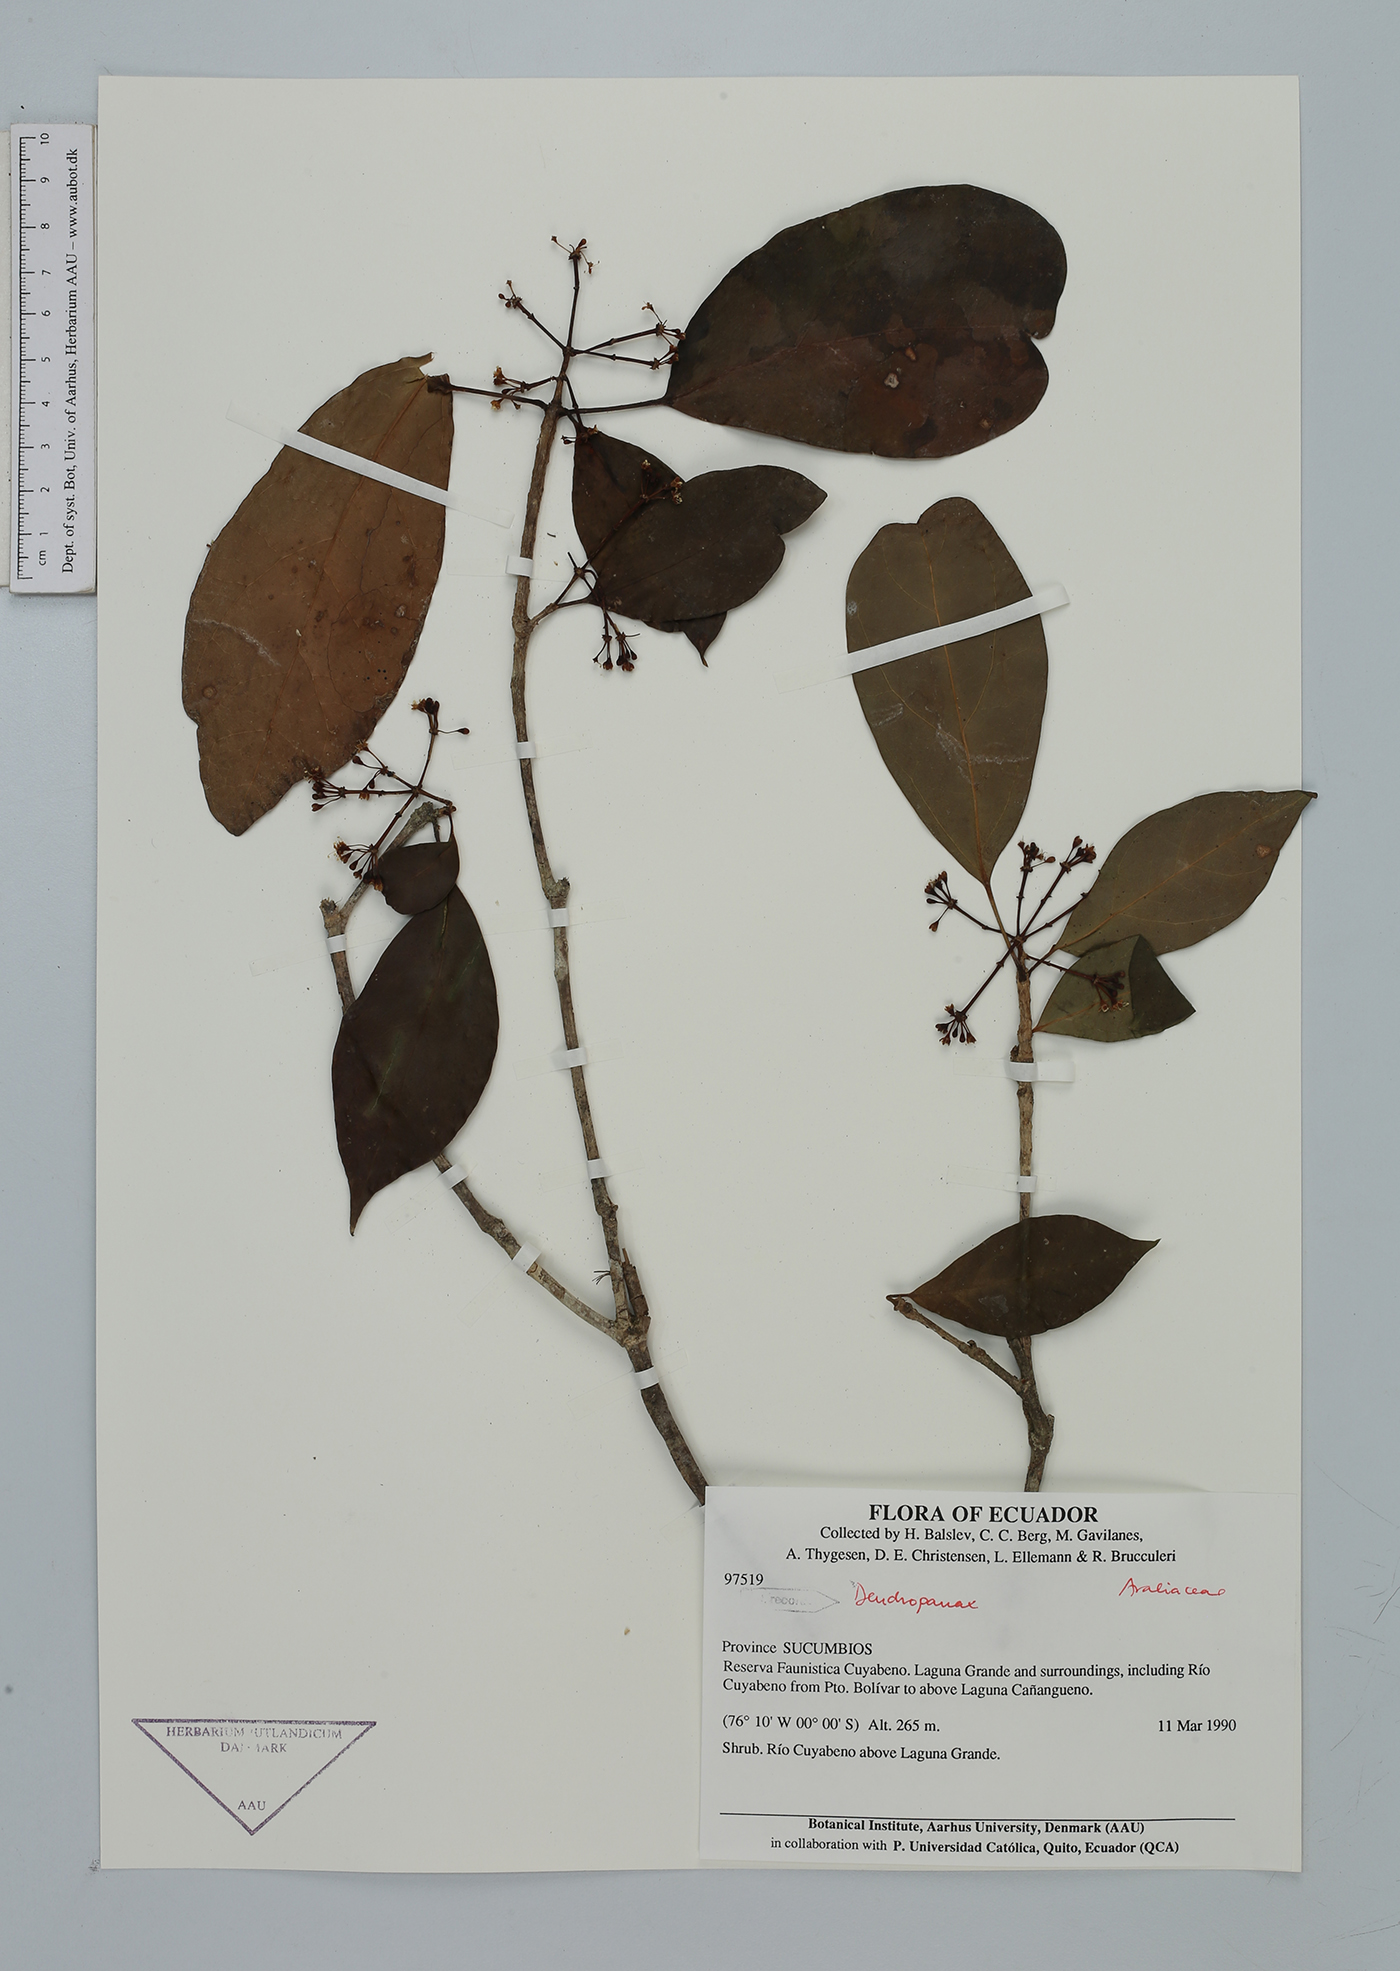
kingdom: Plantae
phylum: Tracheophyta
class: Magnoliopsida
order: Apiales
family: Araliaceae
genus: Dendropanax
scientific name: Dendropanax
